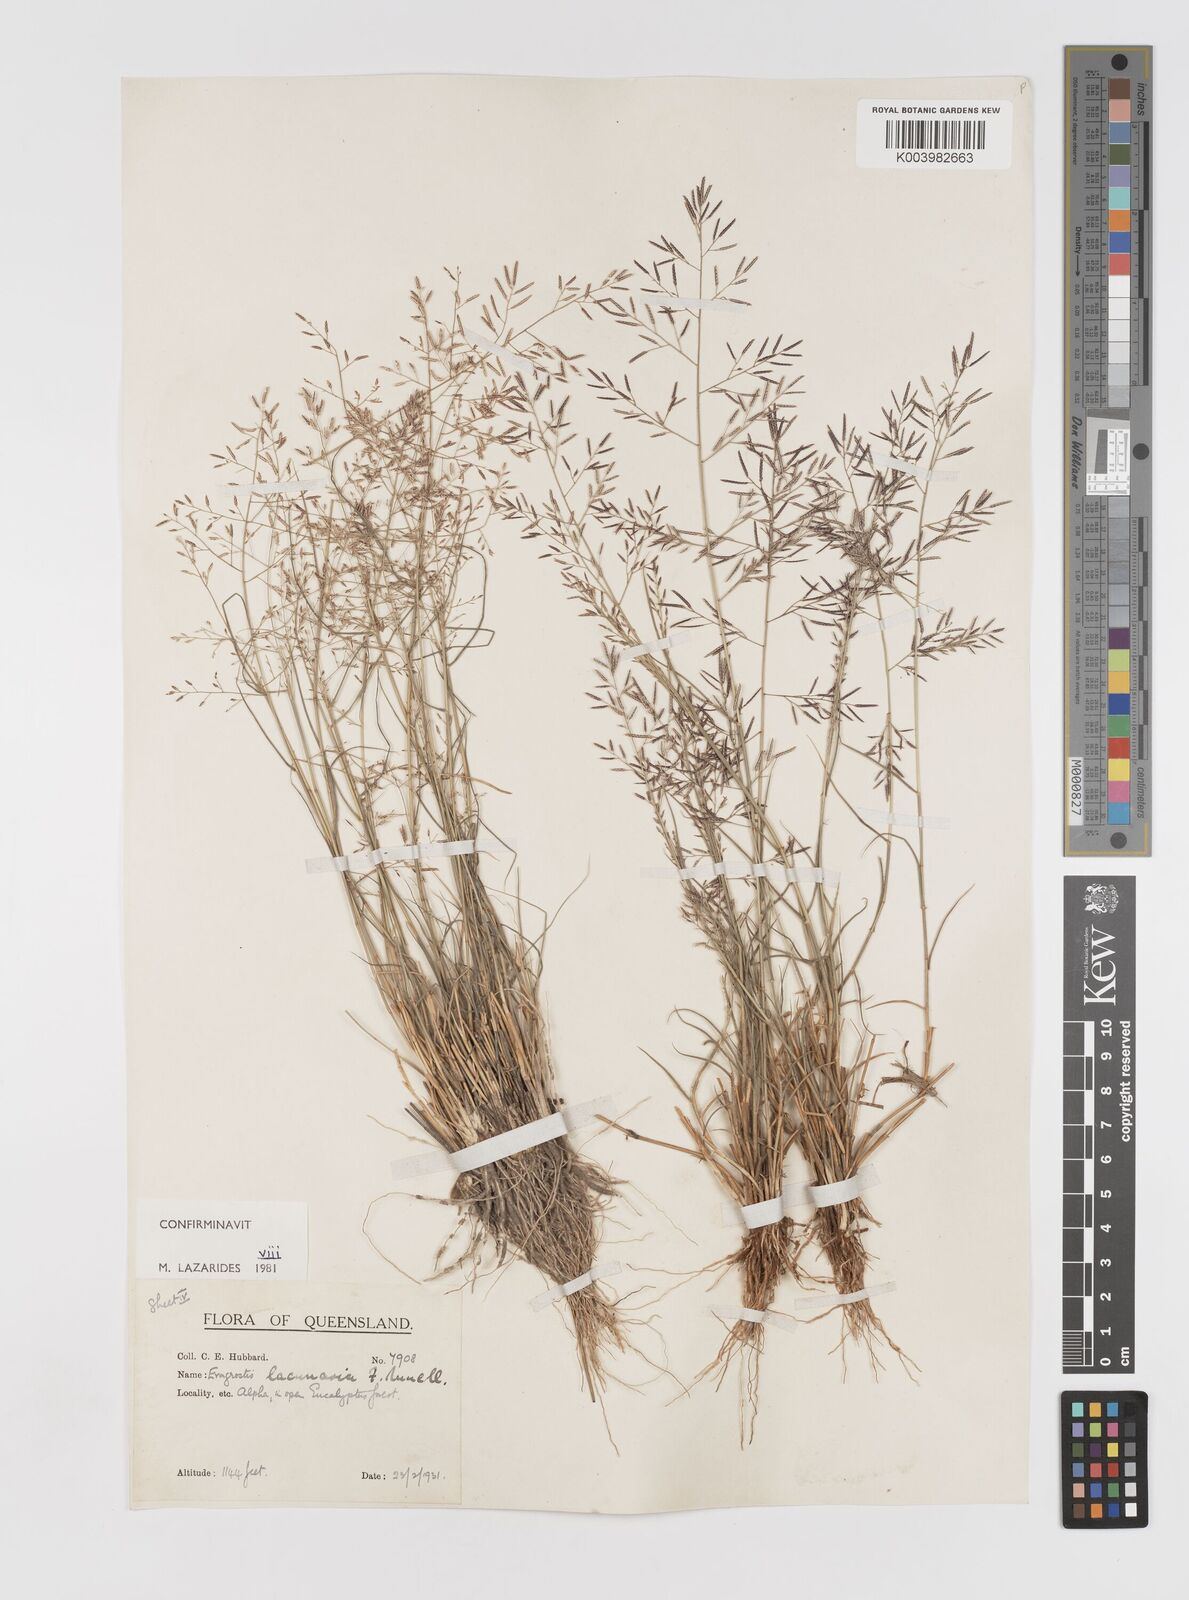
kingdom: Plantae
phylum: Tracheophyta
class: Liliopsida
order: Poales
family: Poaceae
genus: Eragrostis
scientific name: Eragrostis lacunaria
